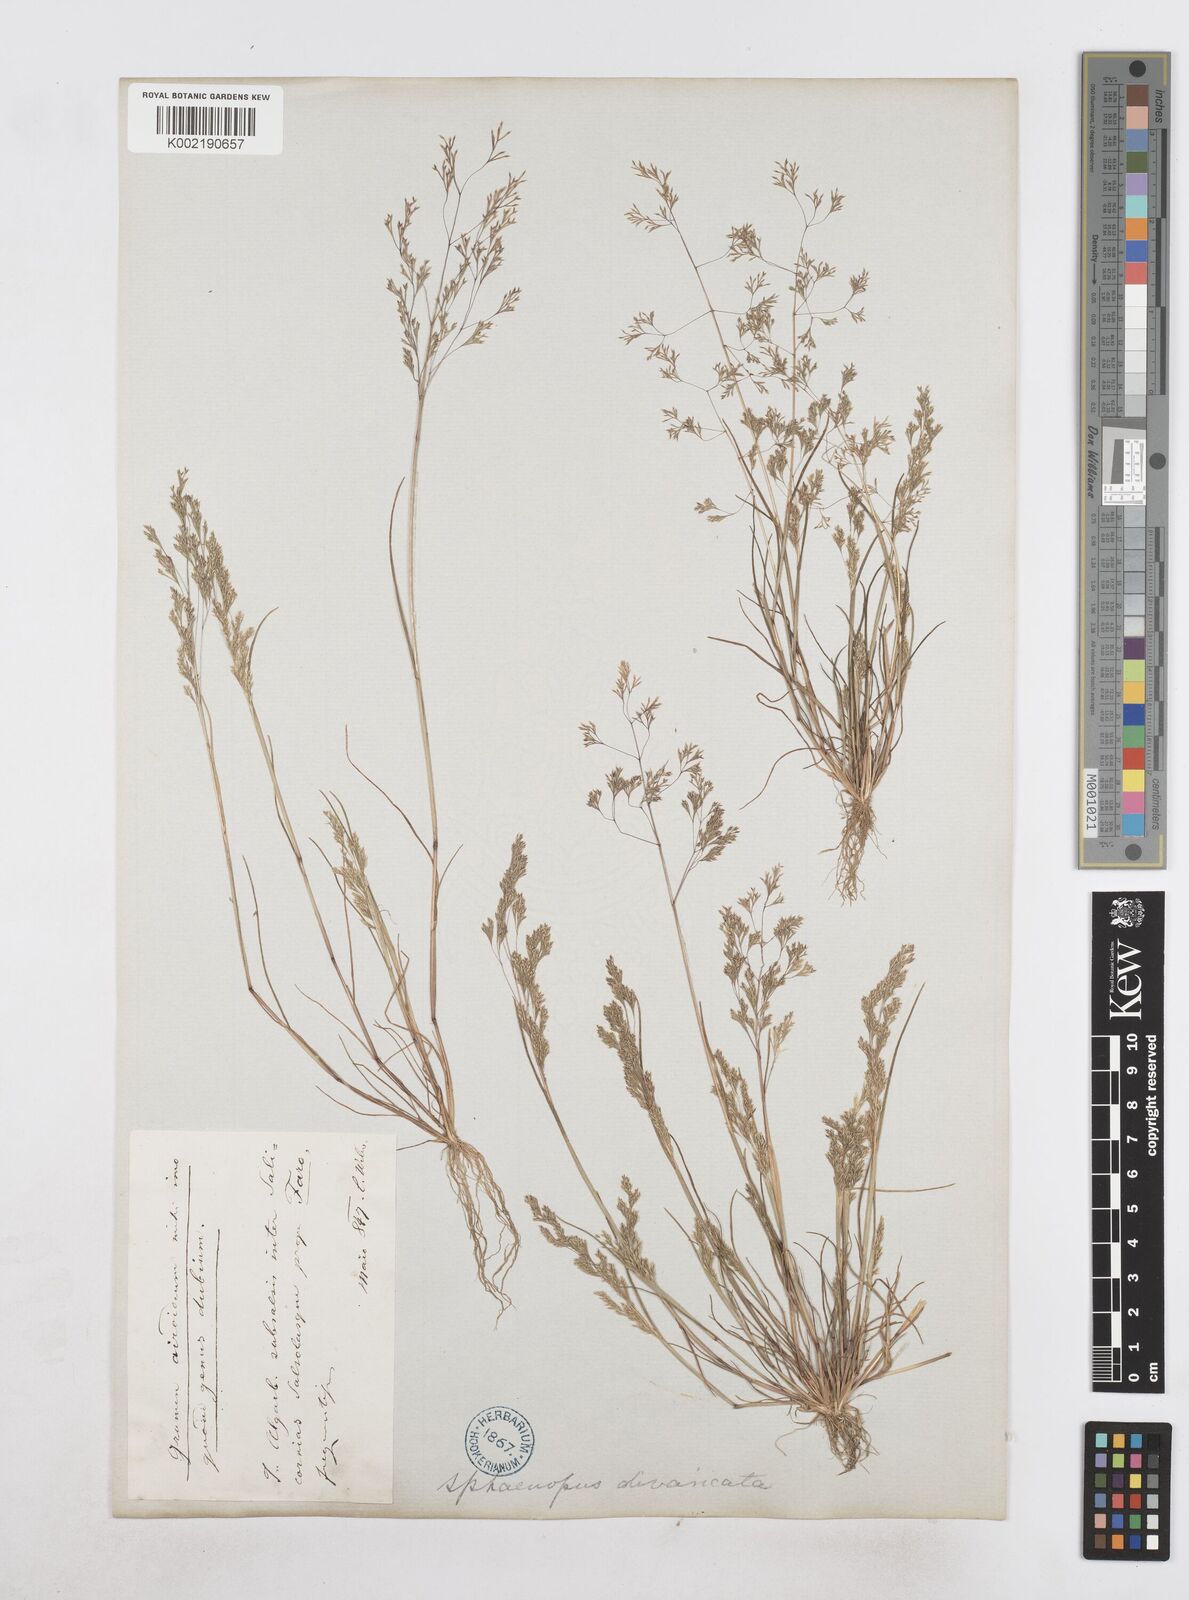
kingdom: Plantae
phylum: Tracheophyta
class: Liliopsida
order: Poales
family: Poaceae
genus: Sphenopus
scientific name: Sphenopus divaricatus
